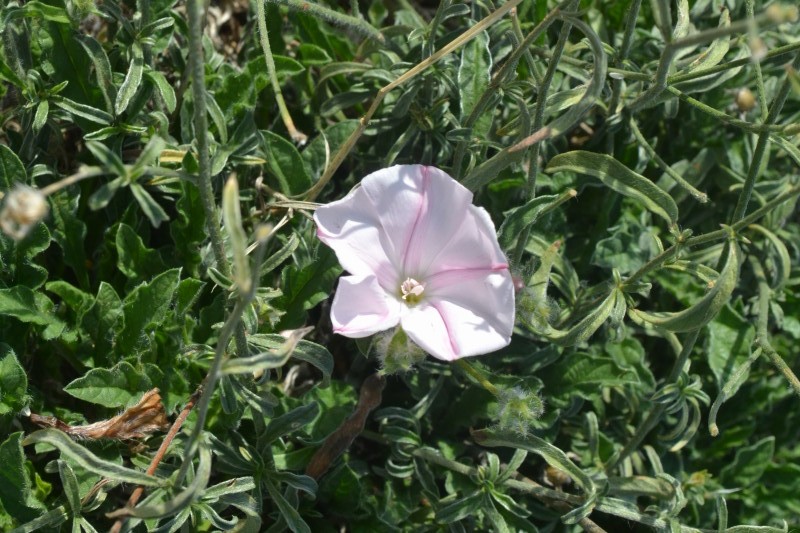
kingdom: Plantae
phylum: Tracheophyta
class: Magnoliopsida
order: Solanales
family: Convolvulaceae
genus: Convolvulus
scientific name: Convolvulus cantabrica
